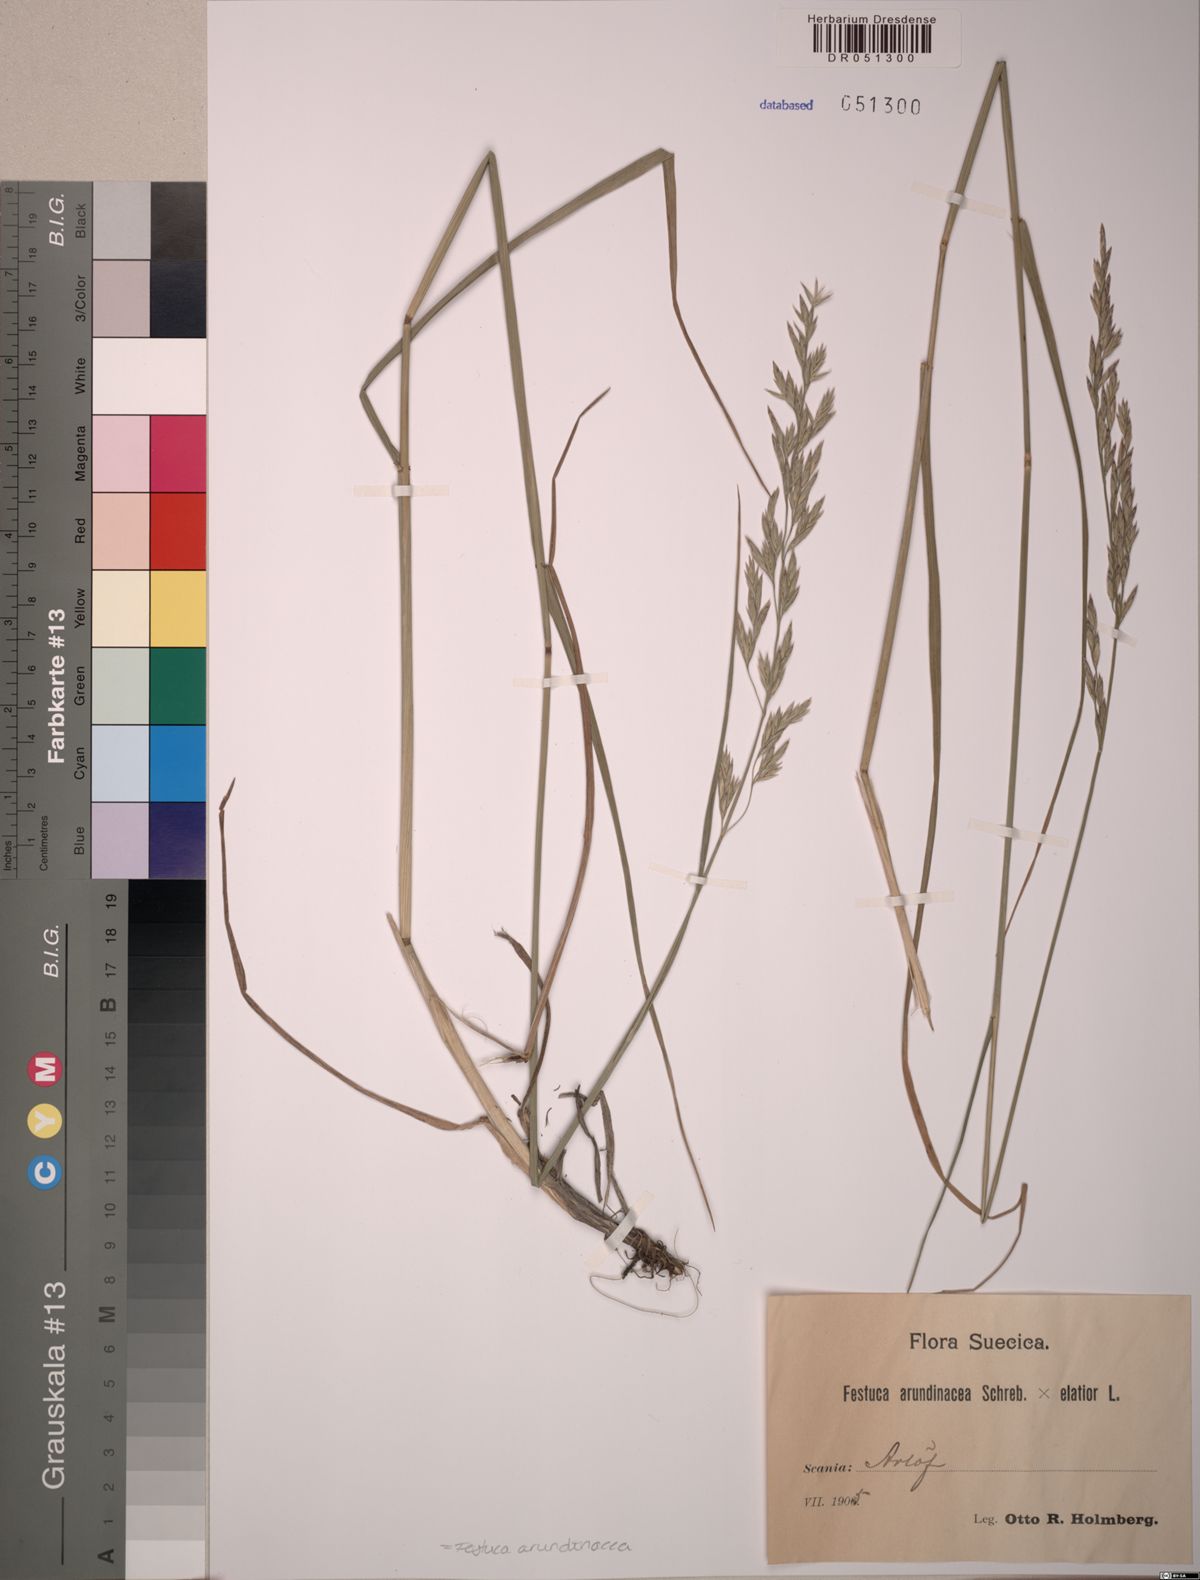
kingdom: Plantae
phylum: Tracheophyta
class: Liliopsida
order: Poales
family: Poaceae
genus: Lolium
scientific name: Lolium arundinaceum
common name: Reed fescue
